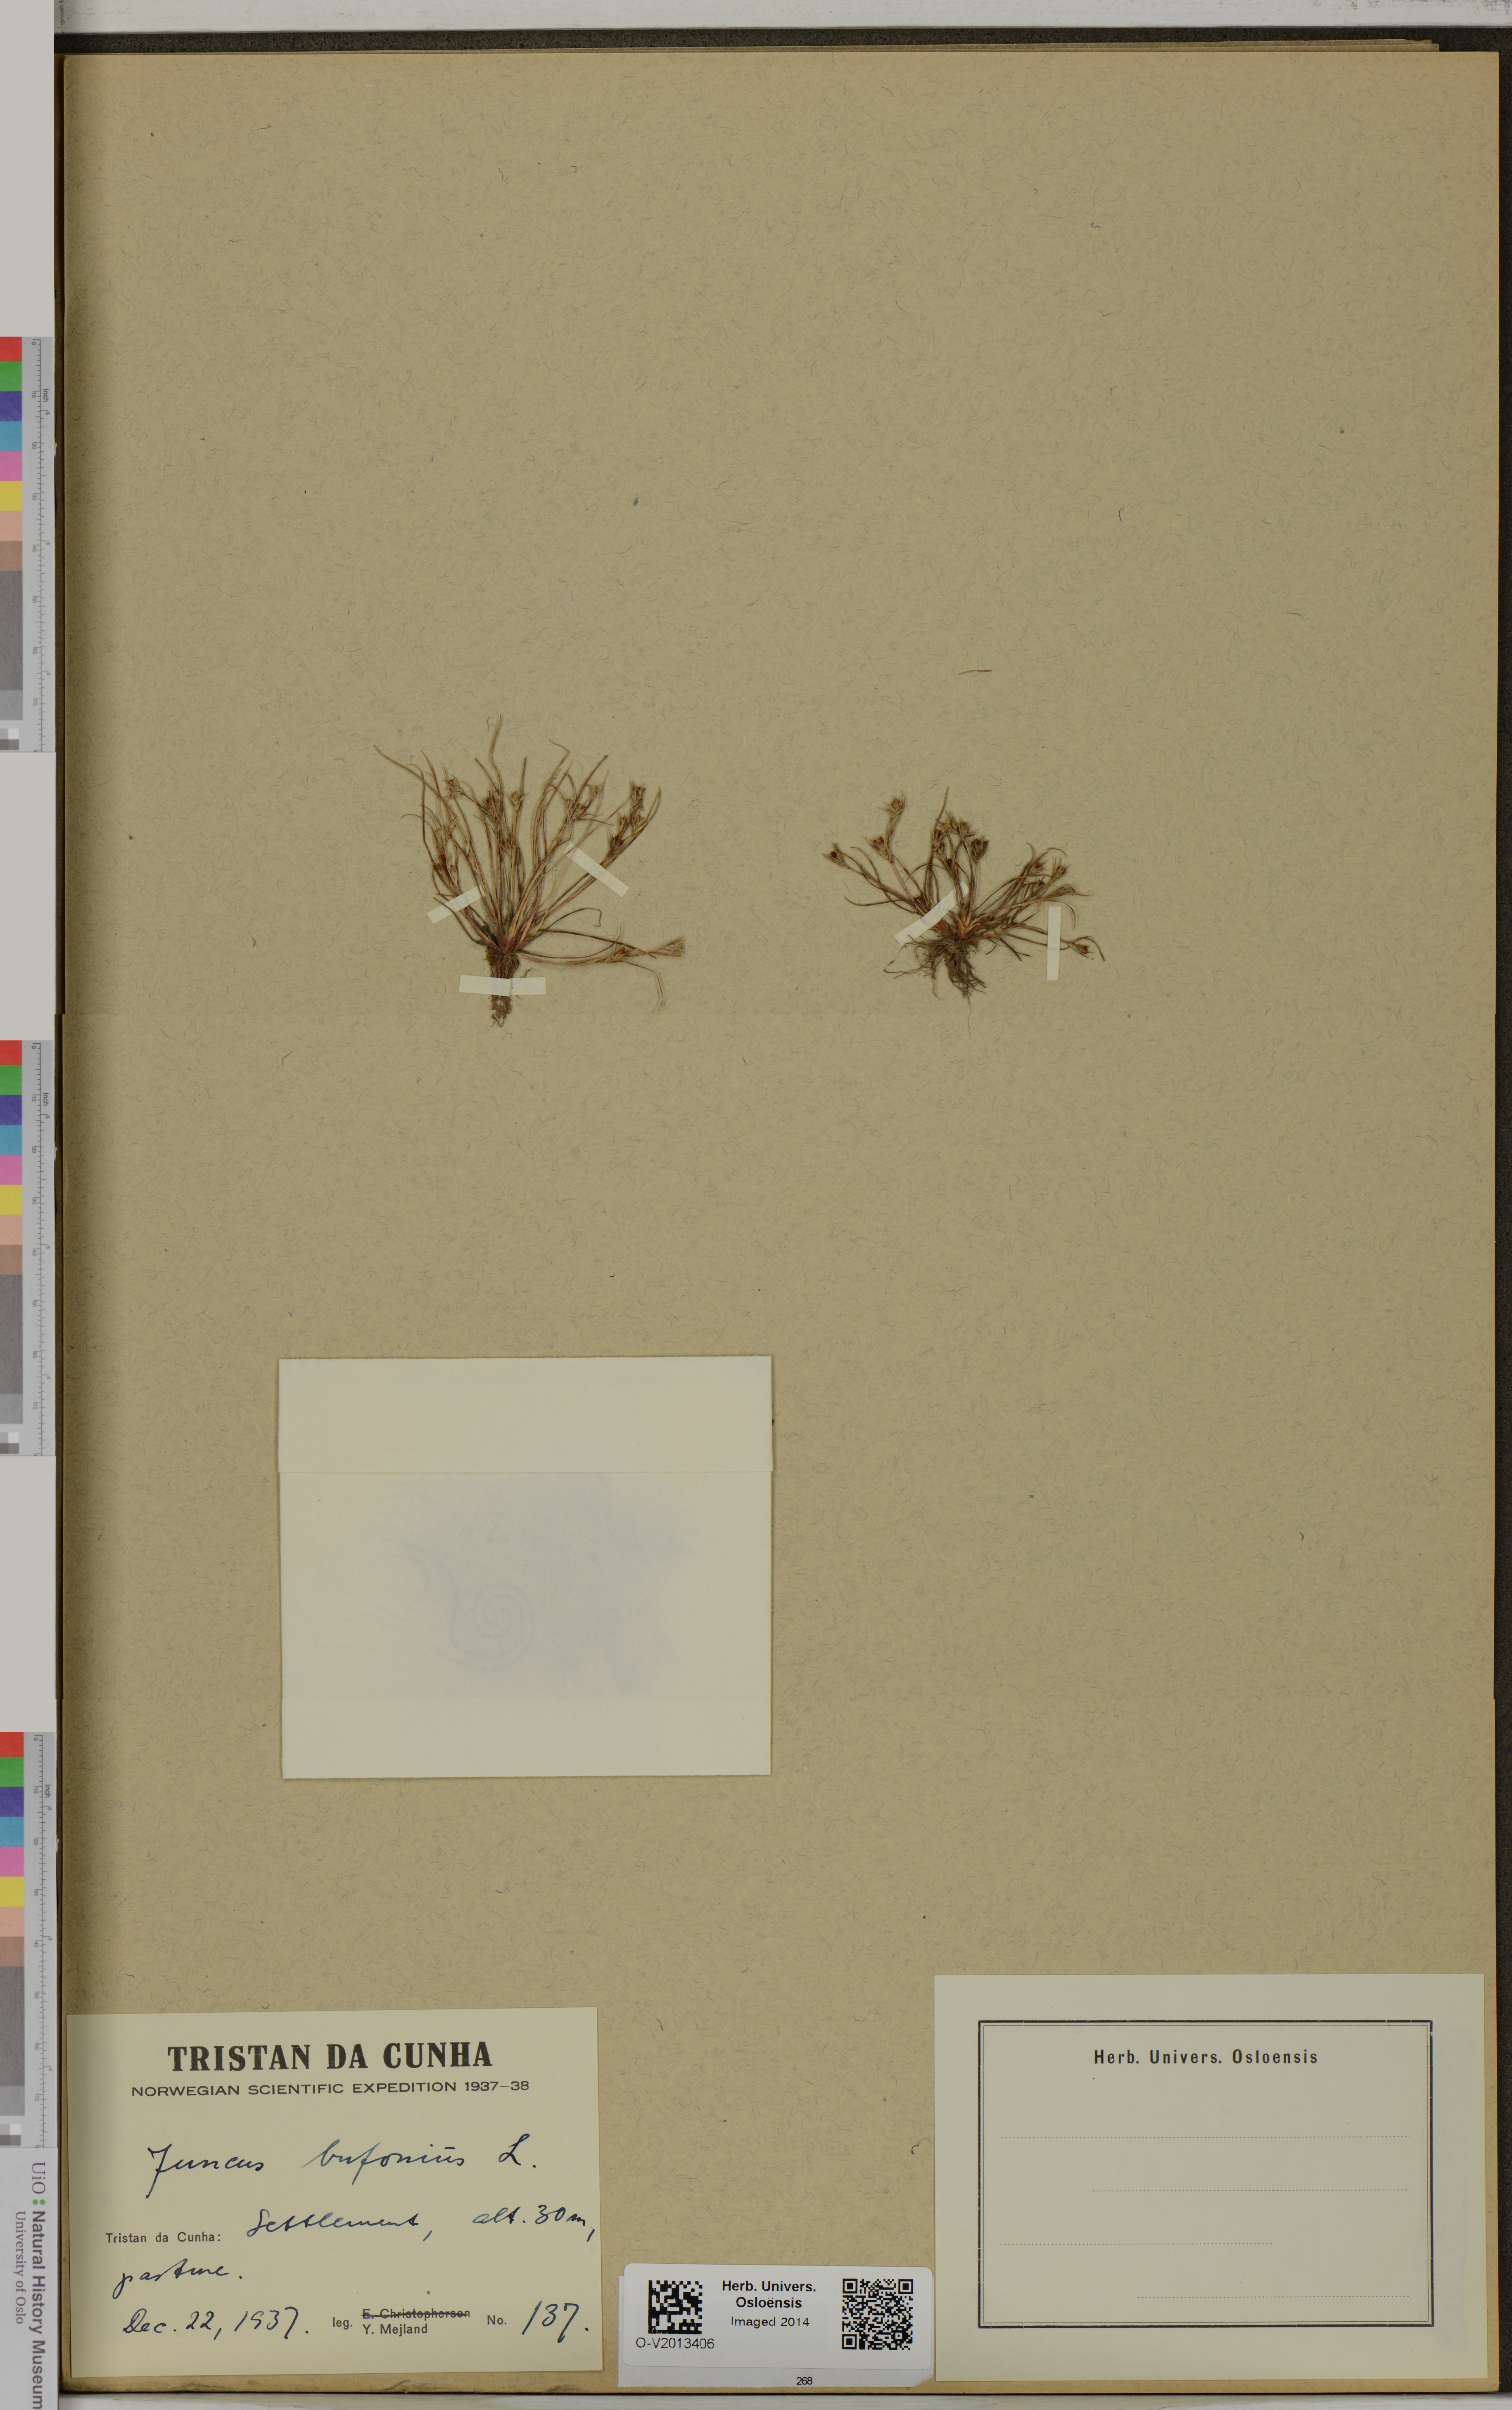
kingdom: Plantae
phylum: Tracheophyta
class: Liliopsida
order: Poales
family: Juncaceae
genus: Juncus
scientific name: Juncus bufonius
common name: Toad rush
